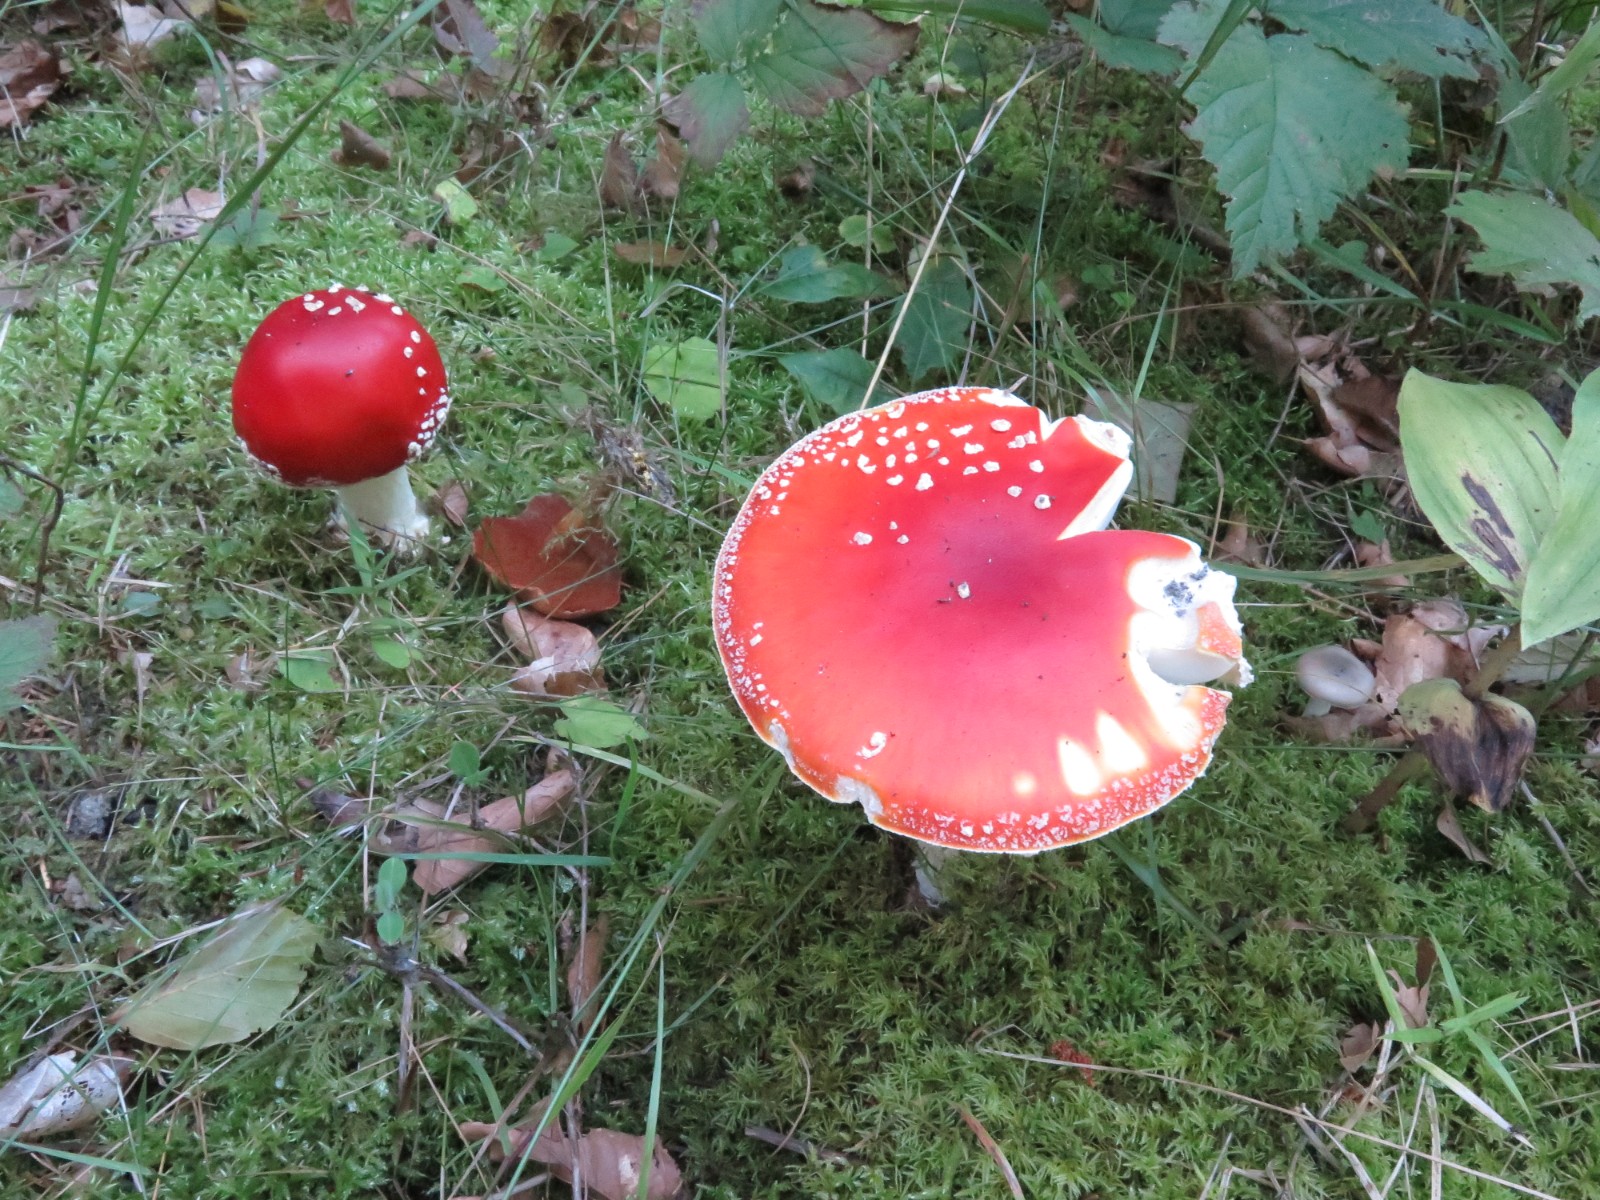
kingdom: Fungi
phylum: Basidiomycota
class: Agaricomycetes
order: Agaricales
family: Amanitaceae
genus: Amanita
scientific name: Amanita muscaria
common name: rød fluesvamp
